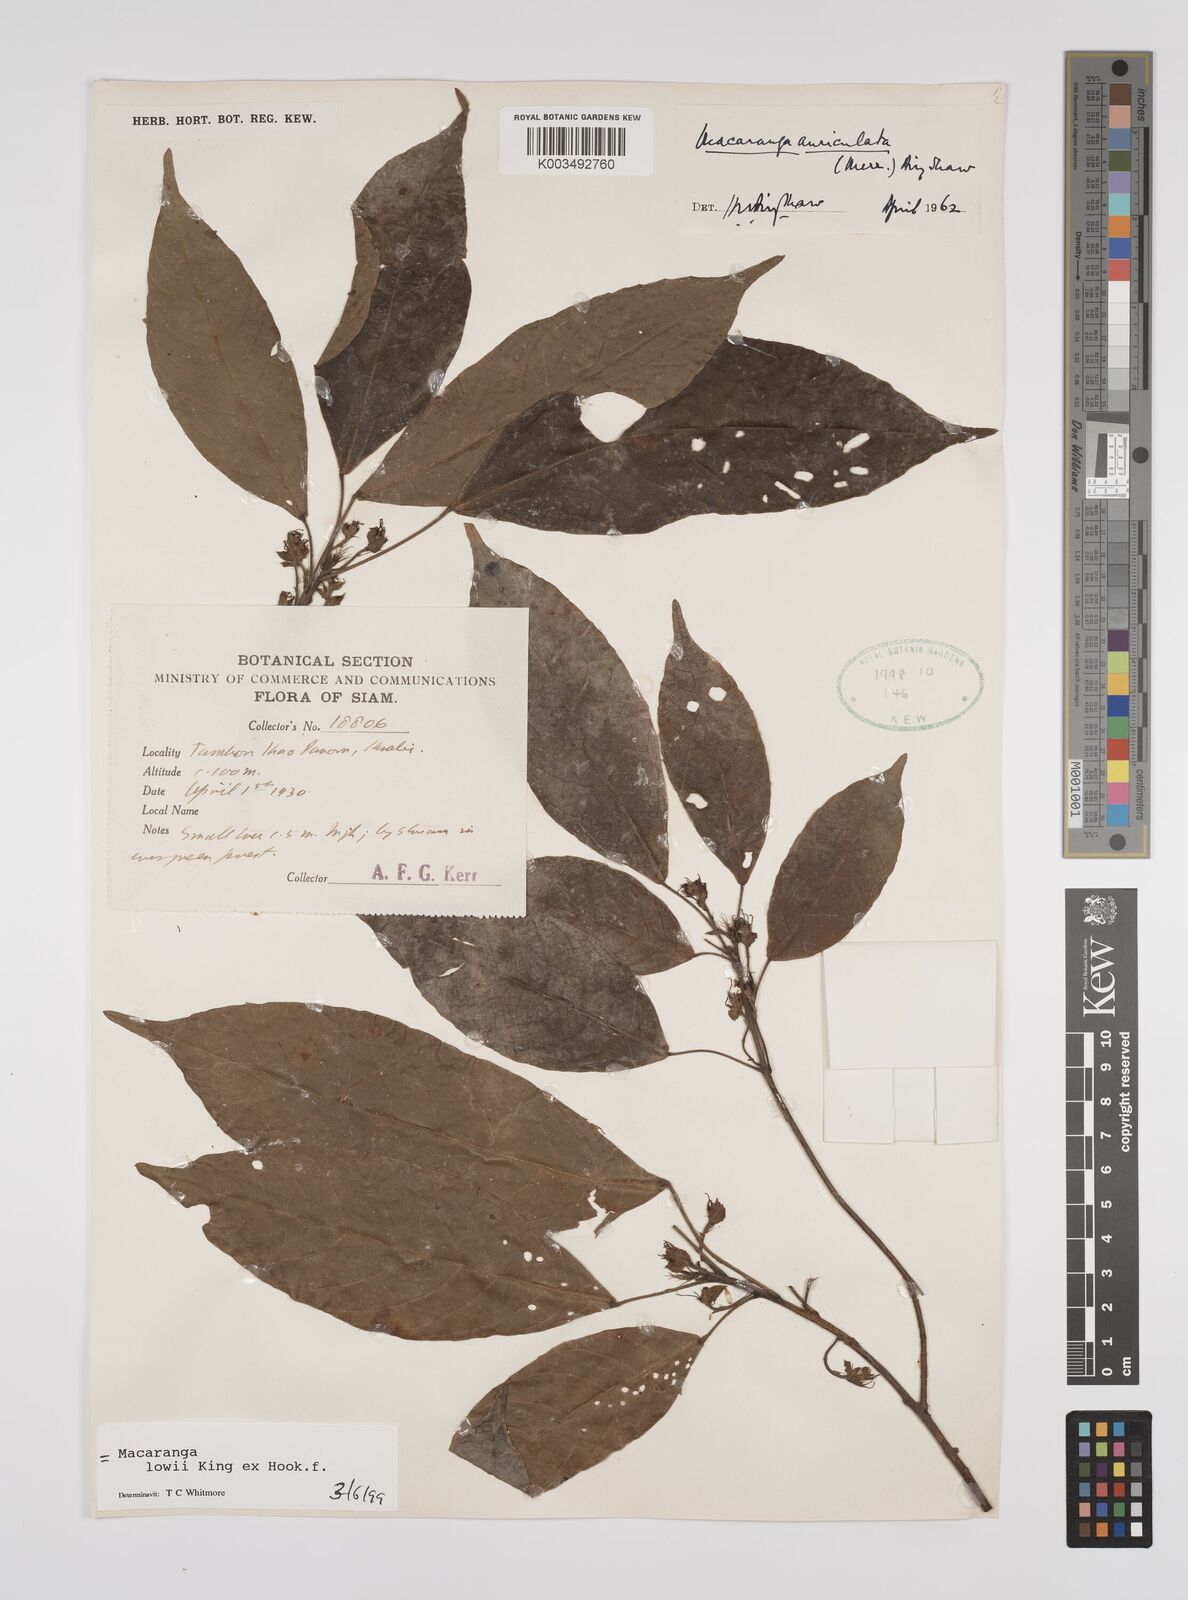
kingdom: Plantae
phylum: Tracheophyta
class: Magnoliopsida
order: Malpighiales
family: Euphorbiaceae
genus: Macaranga
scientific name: Macaranga lowii
